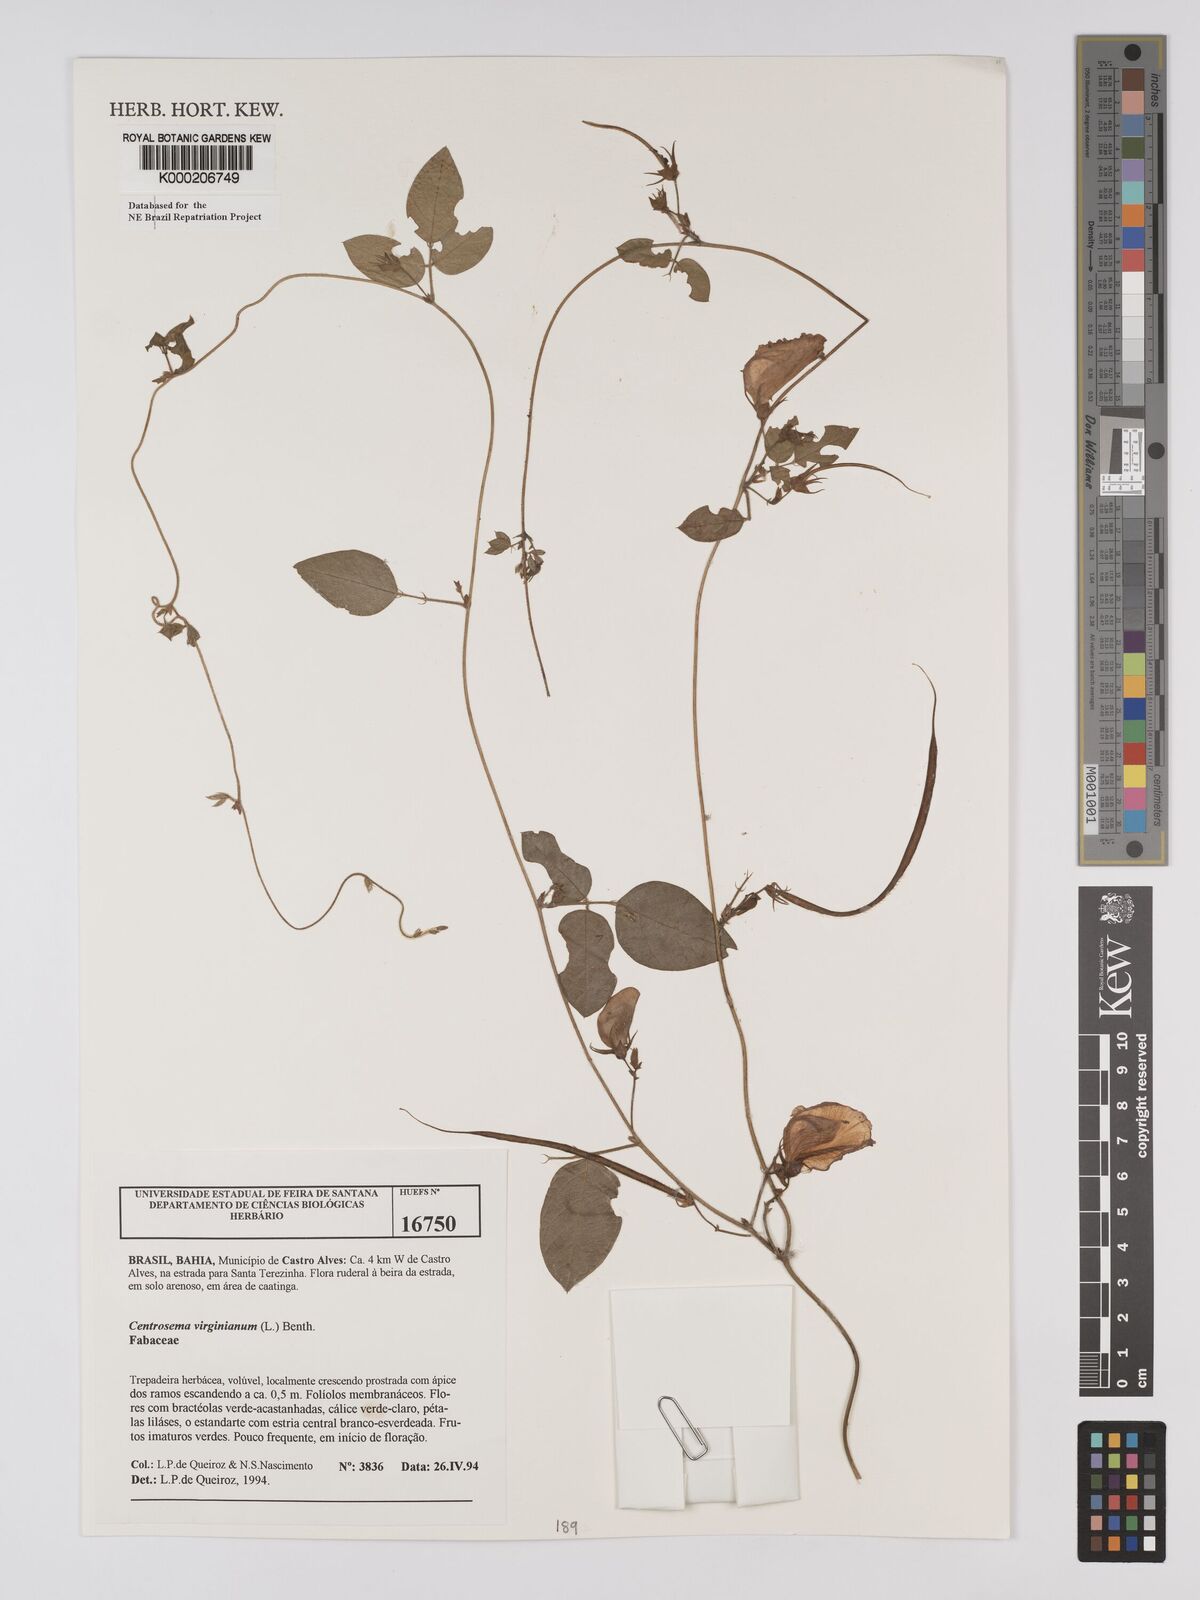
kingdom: Plantae
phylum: Tracheophyta
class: Magnoliopsida
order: Fabales
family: Fabaceae
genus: Centrosema
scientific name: Centrosema virginianum
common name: Butterfly-pea
